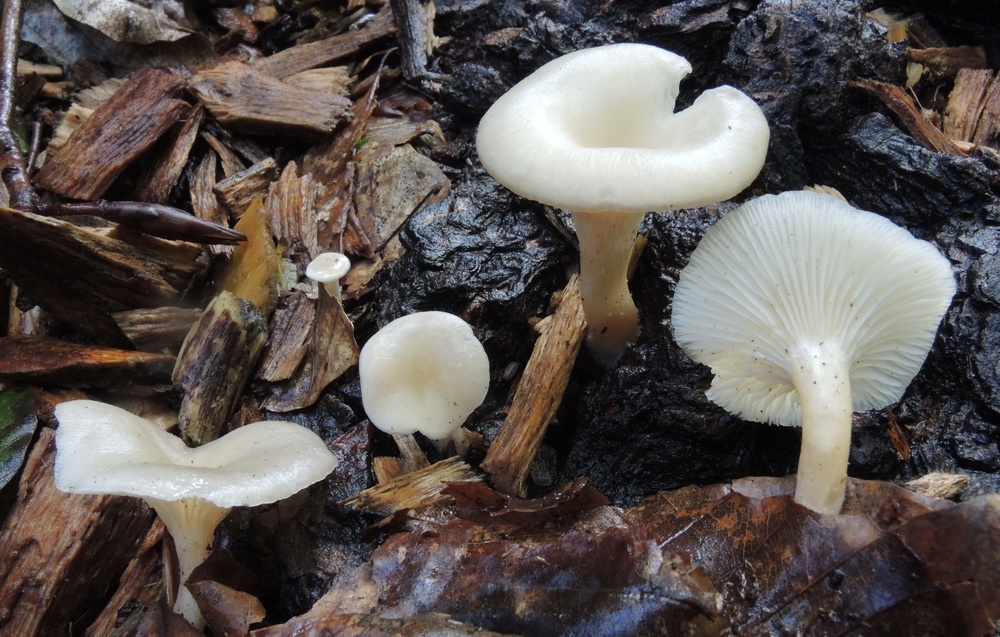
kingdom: Fungi
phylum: Basidiomycota
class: Agaricomycetes
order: Agaricales
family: Tricholomataceae
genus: Clitocybe
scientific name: Clitocybe phaeophthalma
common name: stinkende tragthat
